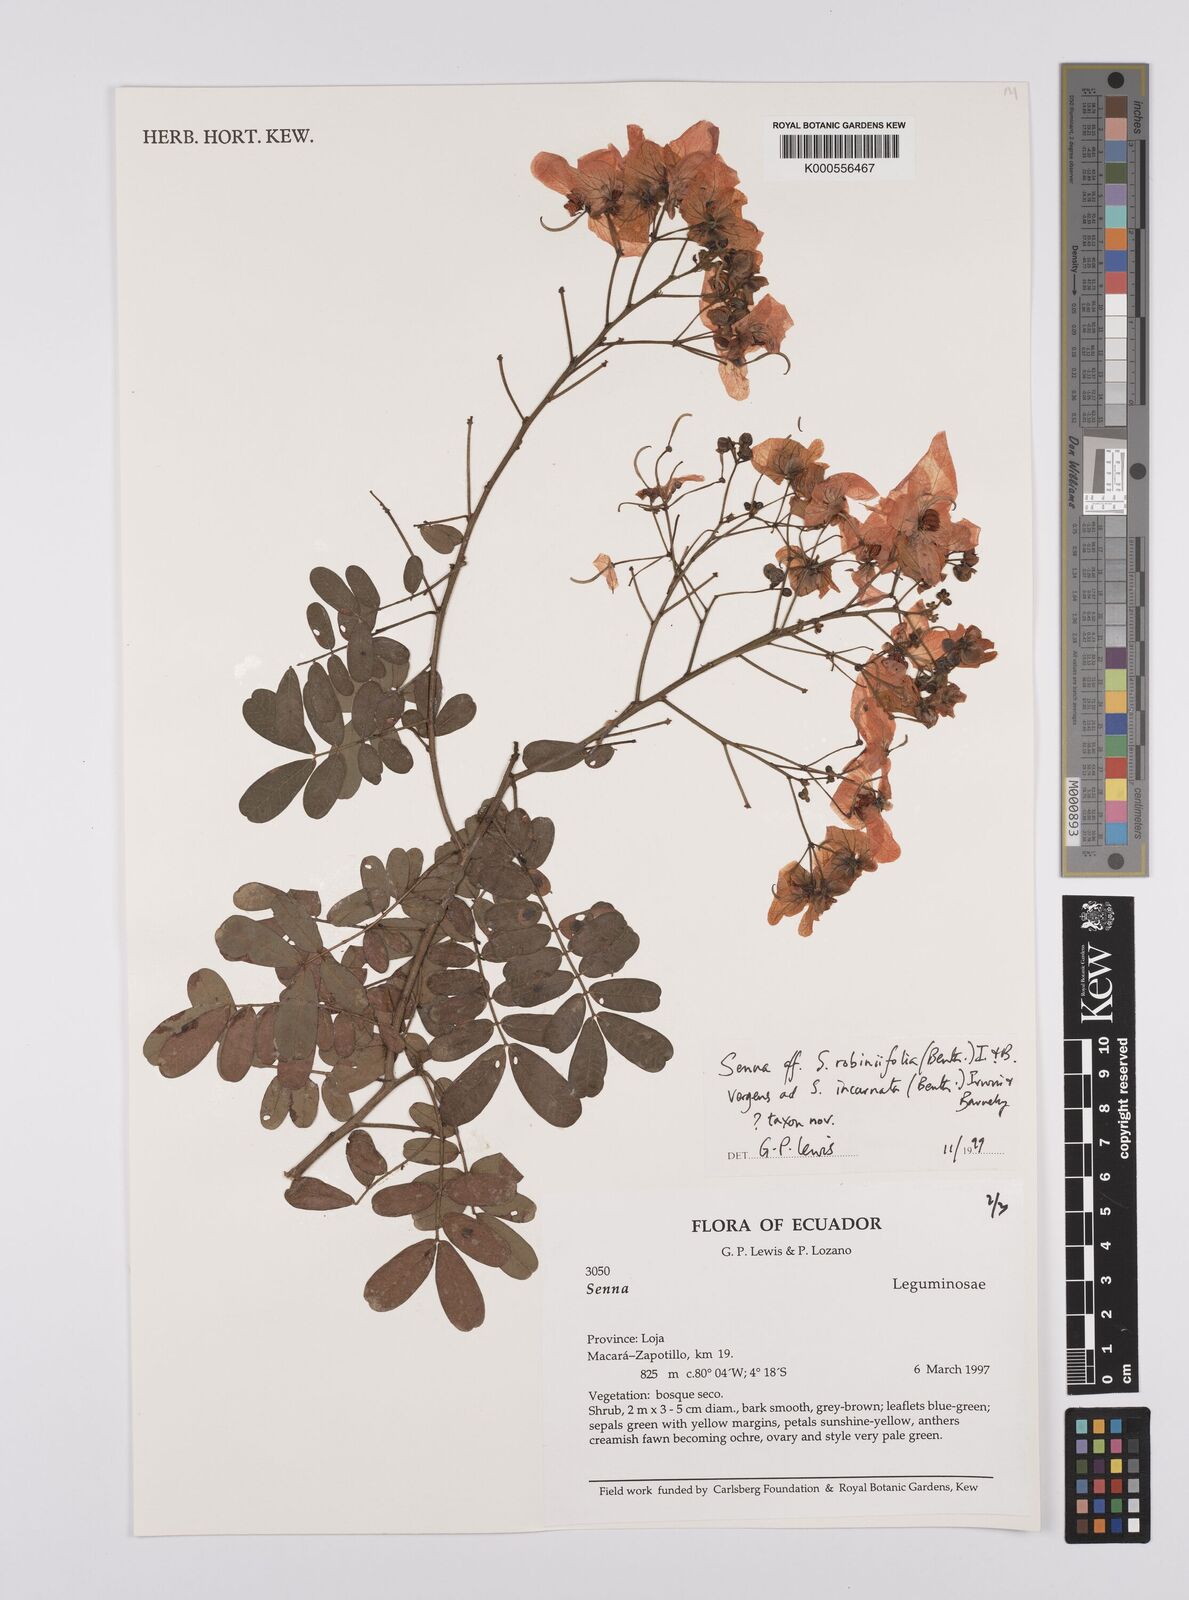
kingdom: Plantae
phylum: Tracheophyta
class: Magnoliopsida
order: Fabales
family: Fabaceae
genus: Senna
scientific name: Senna robiniifolia
